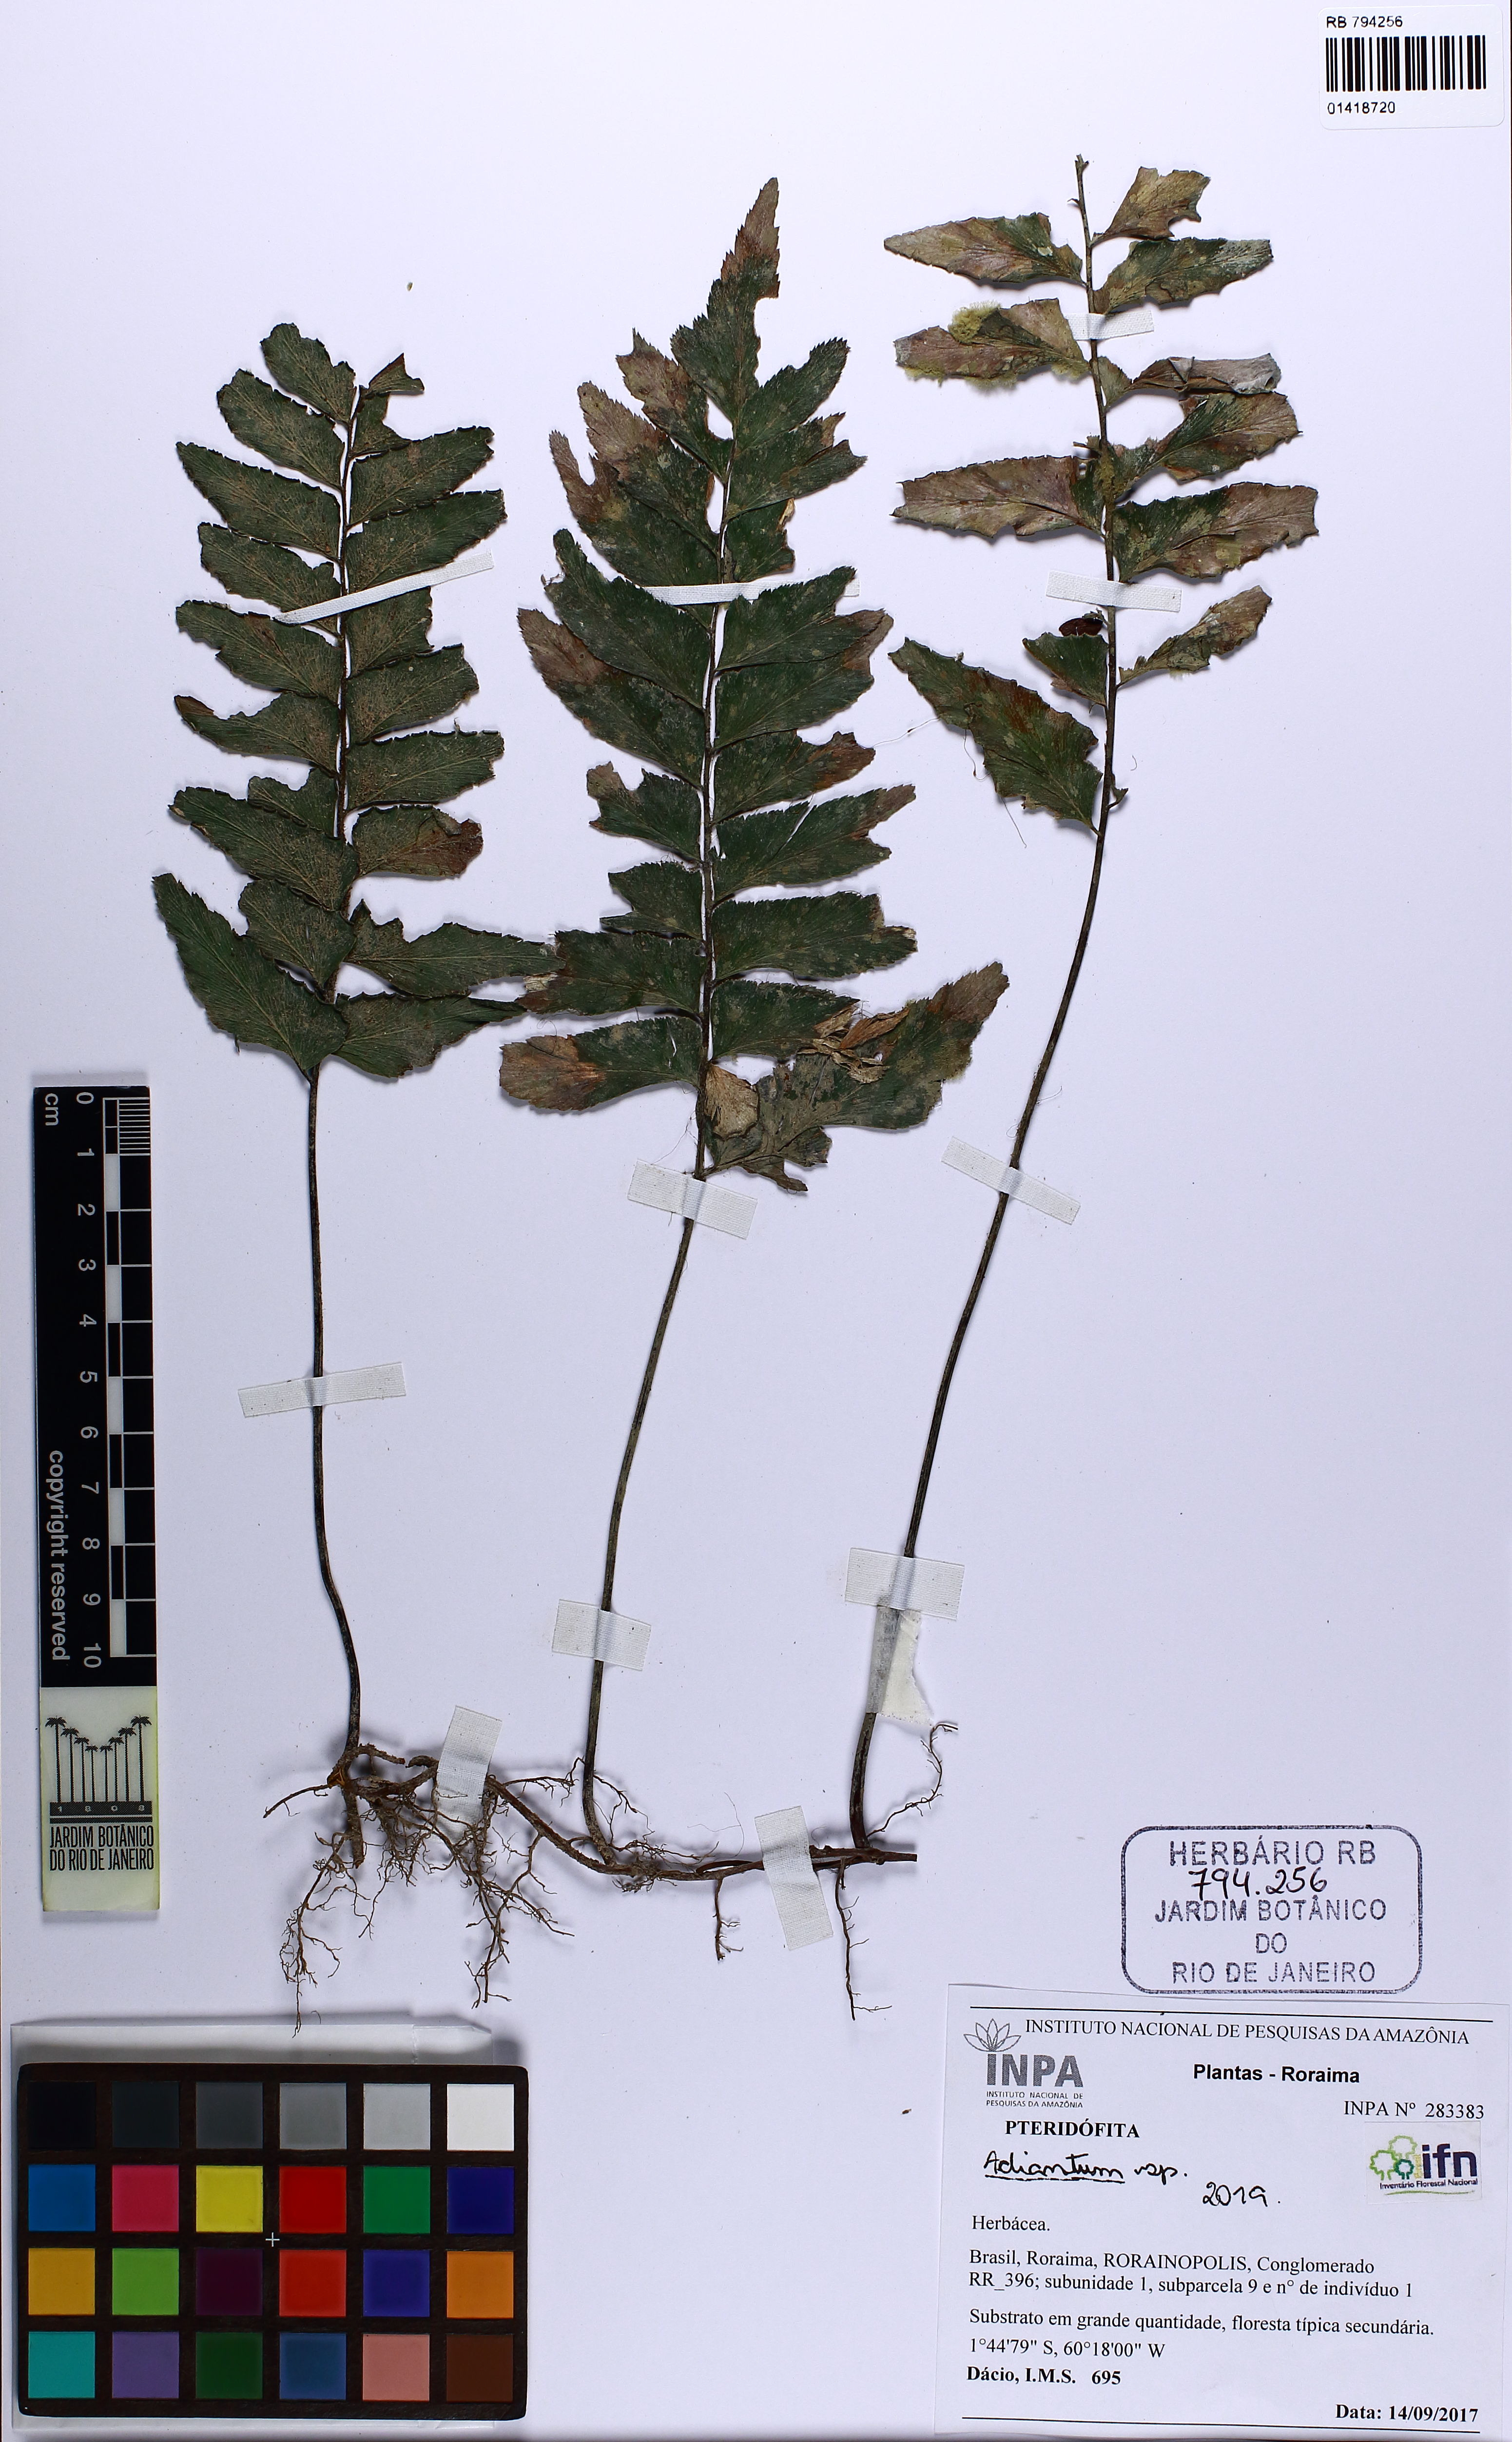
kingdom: Plantae
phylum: Tracheophyta
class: Polypodiopsida
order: Polypodiales
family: Pteridaceae
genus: Adiantum
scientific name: Adiantum
